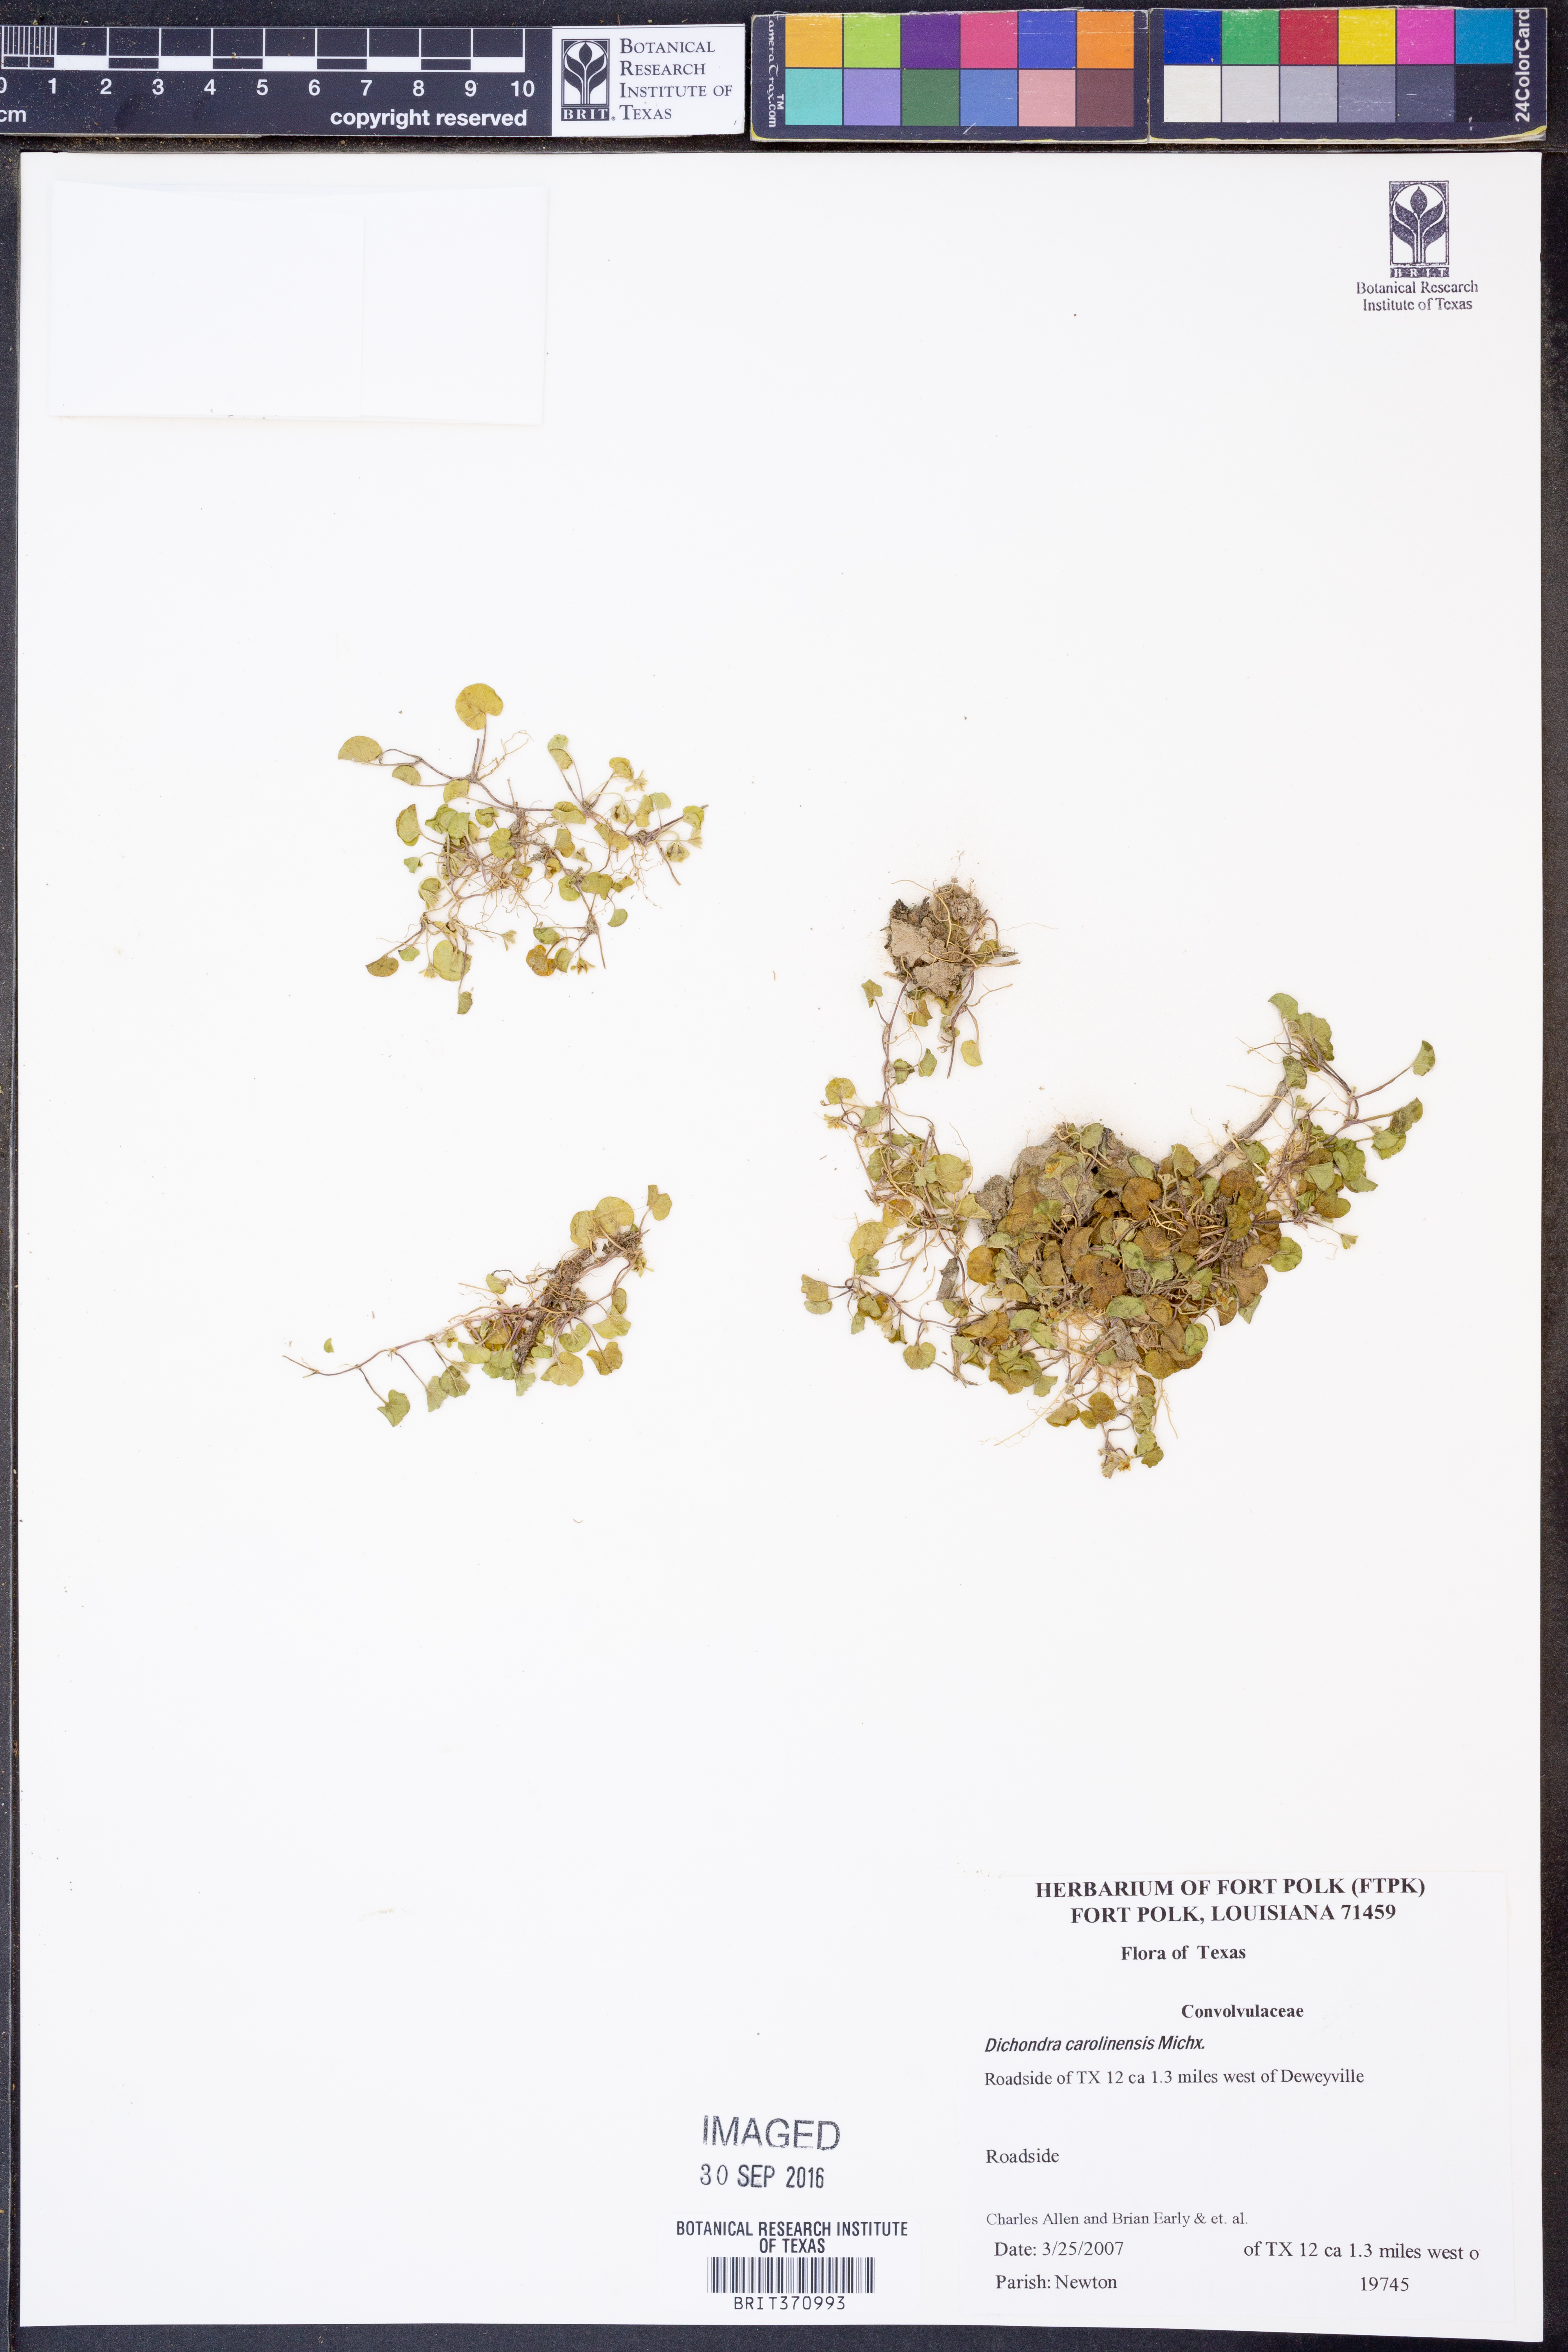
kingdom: Plantae
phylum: Tracheophyta
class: Magnoliopsida
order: Solanales
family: Convolvulaceae
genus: Dichondra
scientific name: Dichondra carolinensis
